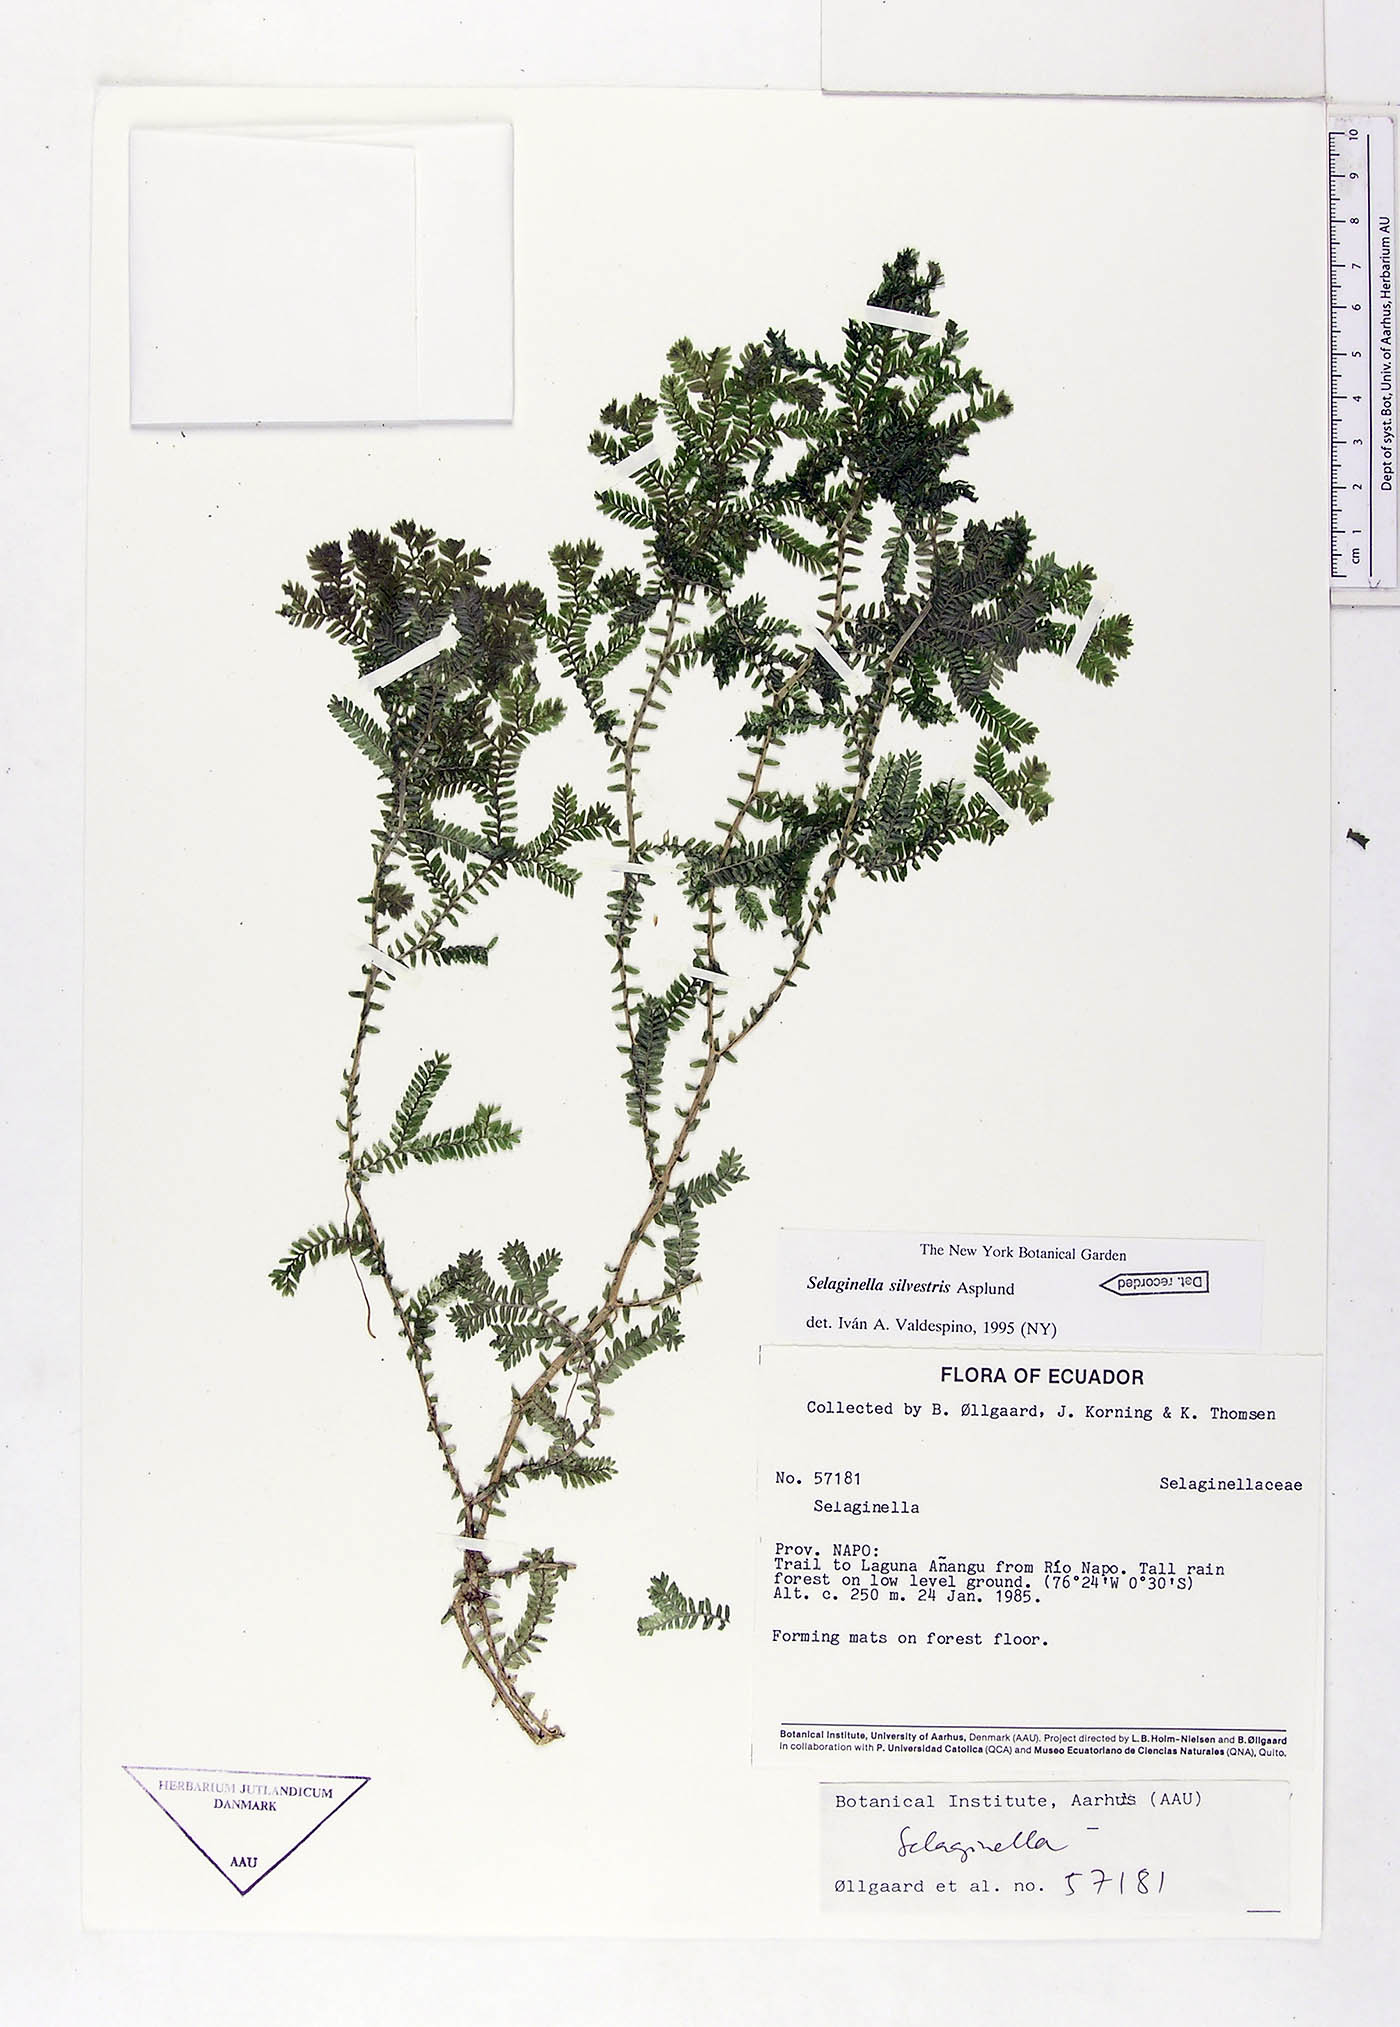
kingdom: Plantae
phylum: Tracheophyta
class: Lycopodiopsida
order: Selaginellales
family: Selaginellaceae
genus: Selaginella
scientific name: Selaginella silvestris
